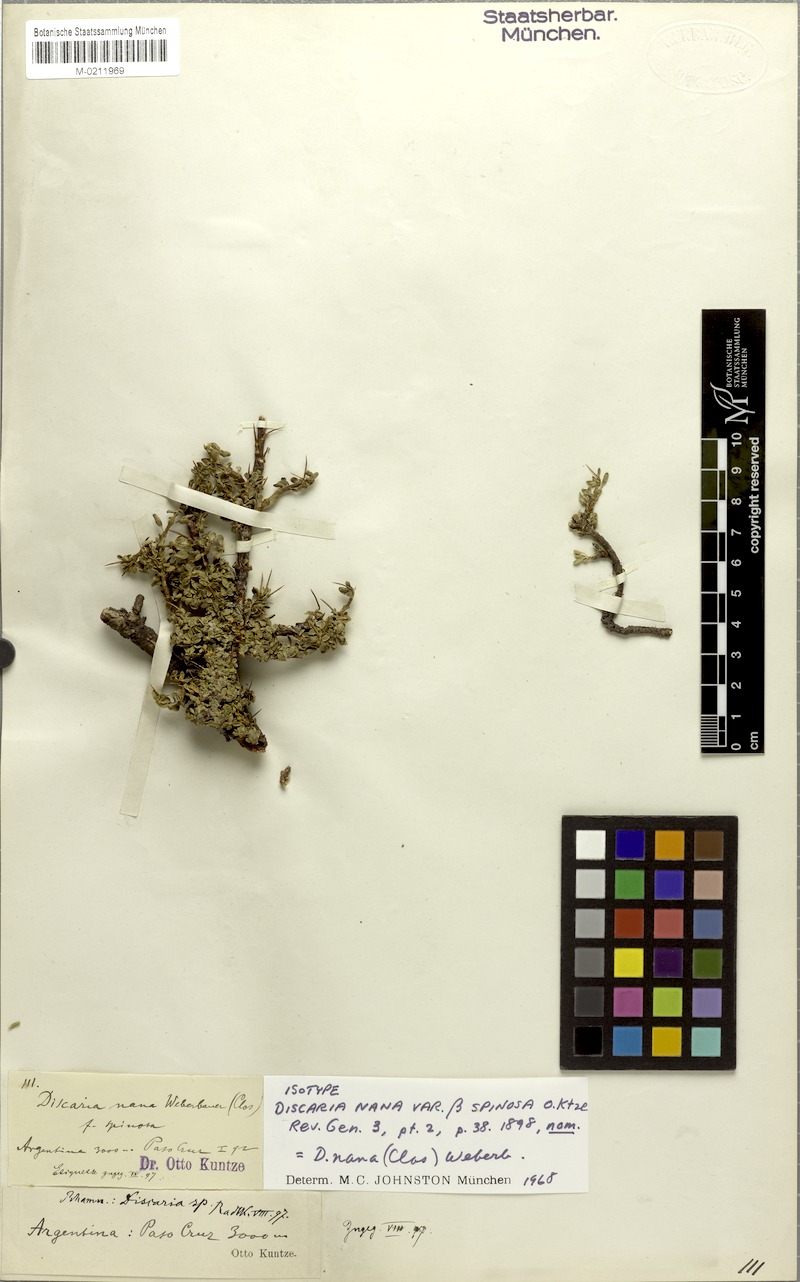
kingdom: Plantae
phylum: Tracheophyta
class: Magnoliopsida
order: Rosales
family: Rhamnaceae
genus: Discaria
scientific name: Discaria nana
